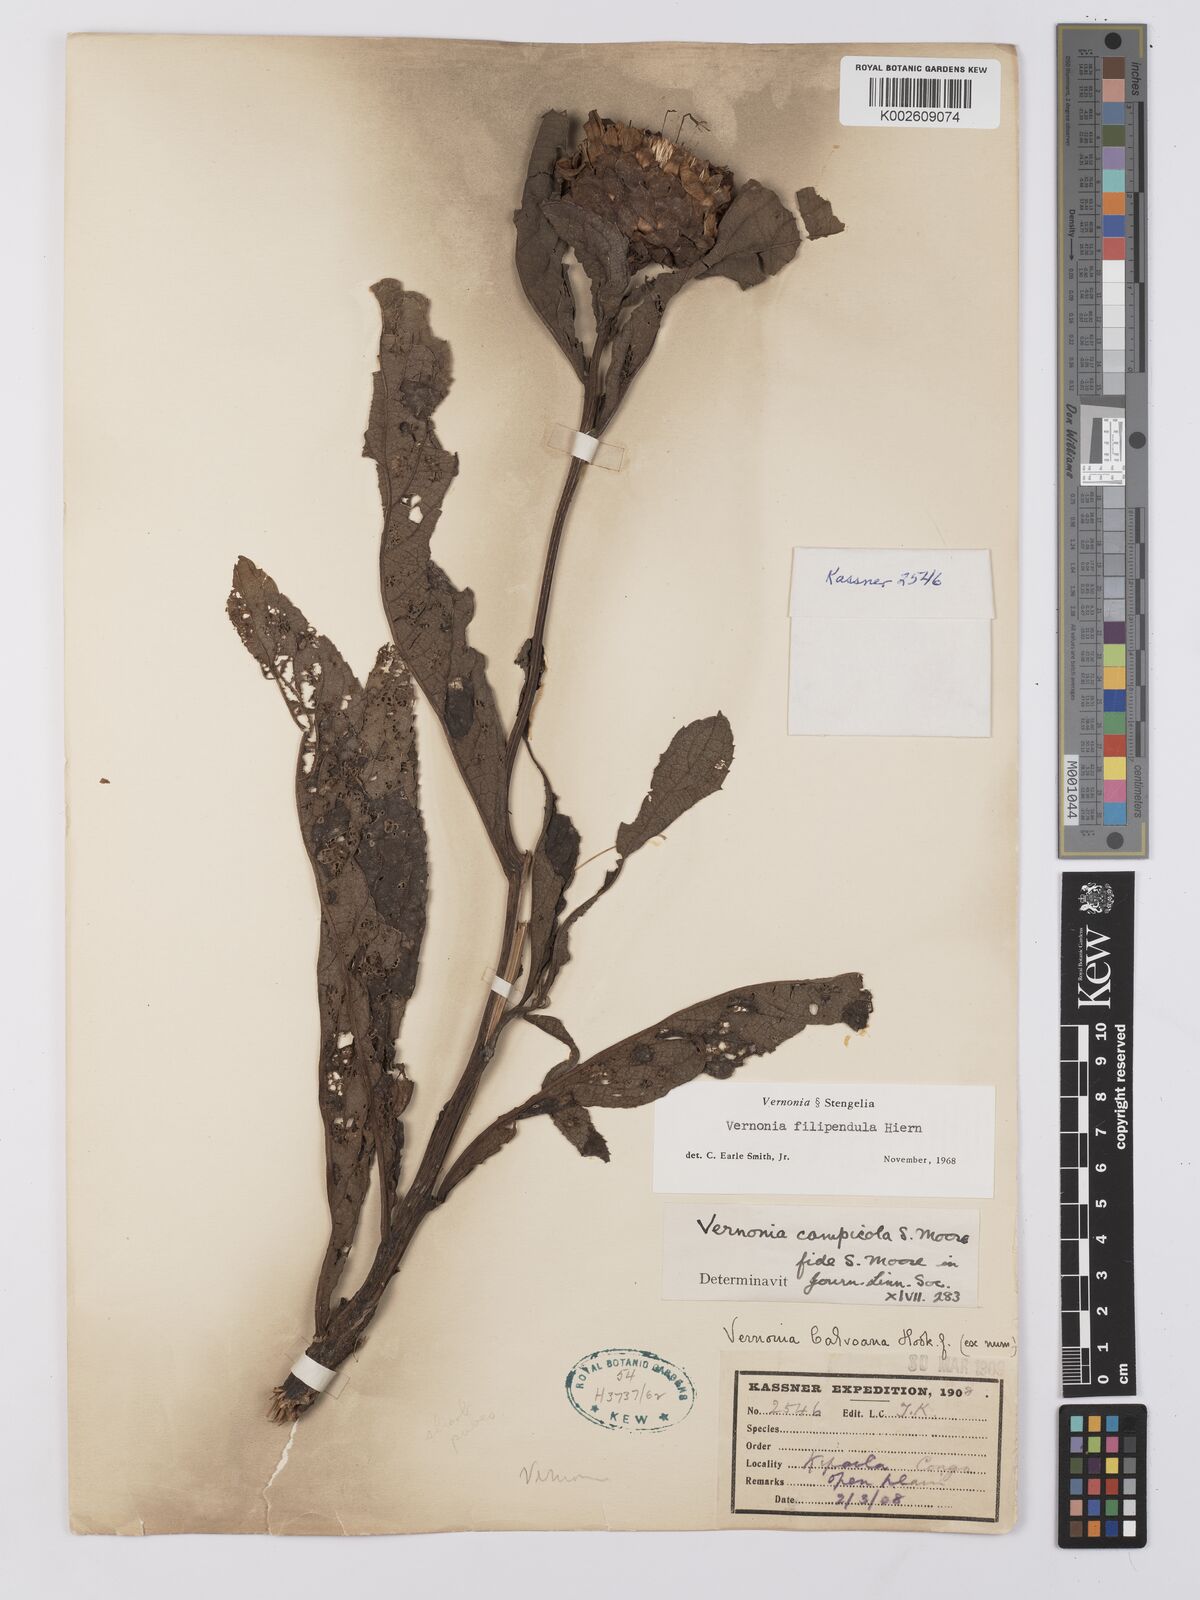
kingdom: Plantae
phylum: Tracheophyta
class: Magnoliopsida
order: Asterales
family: Asteraceae
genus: Vernonia
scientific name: Vernonia campicola
